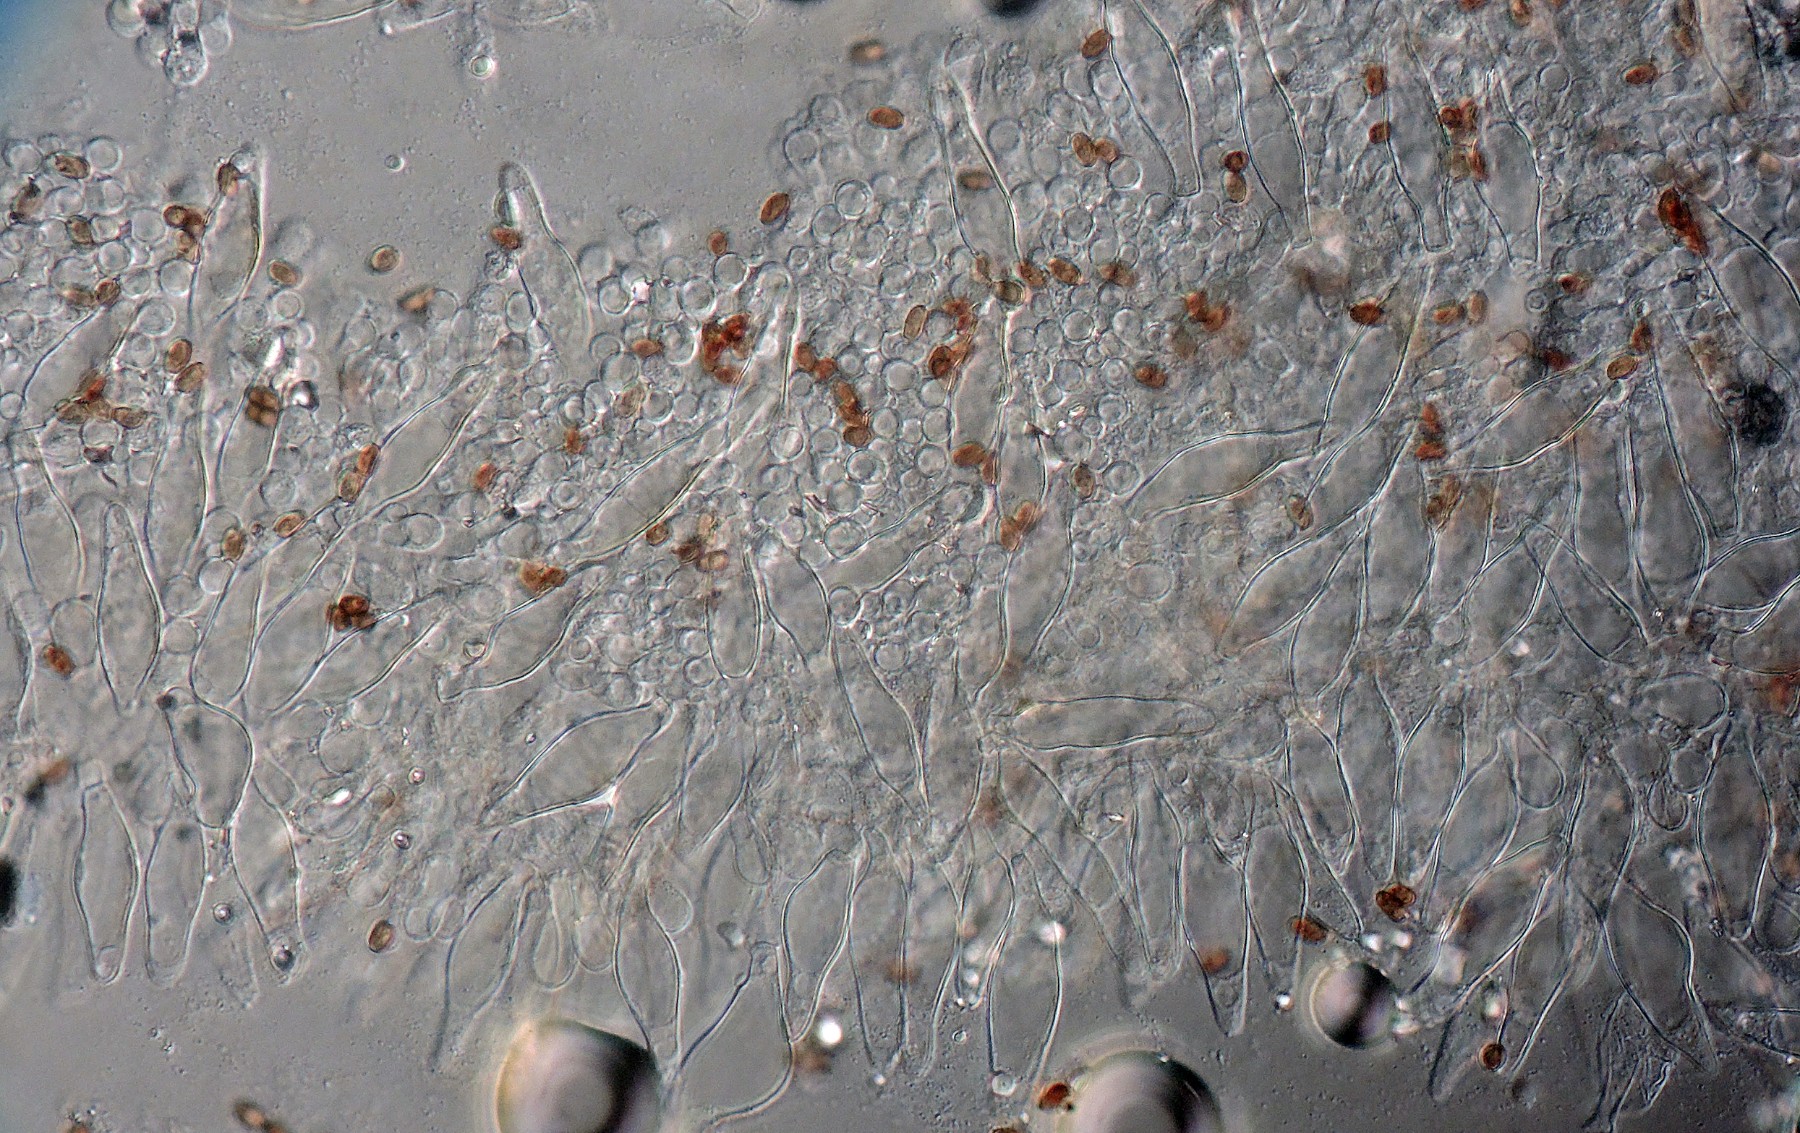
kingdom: Fungi
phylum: Basidiomycota
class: Agaricomycetes
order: Agaricales
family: Psathyrellaceae
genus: Psathyrella
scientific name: Psathyrella spintrigeroides
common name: tandet mørkhat
